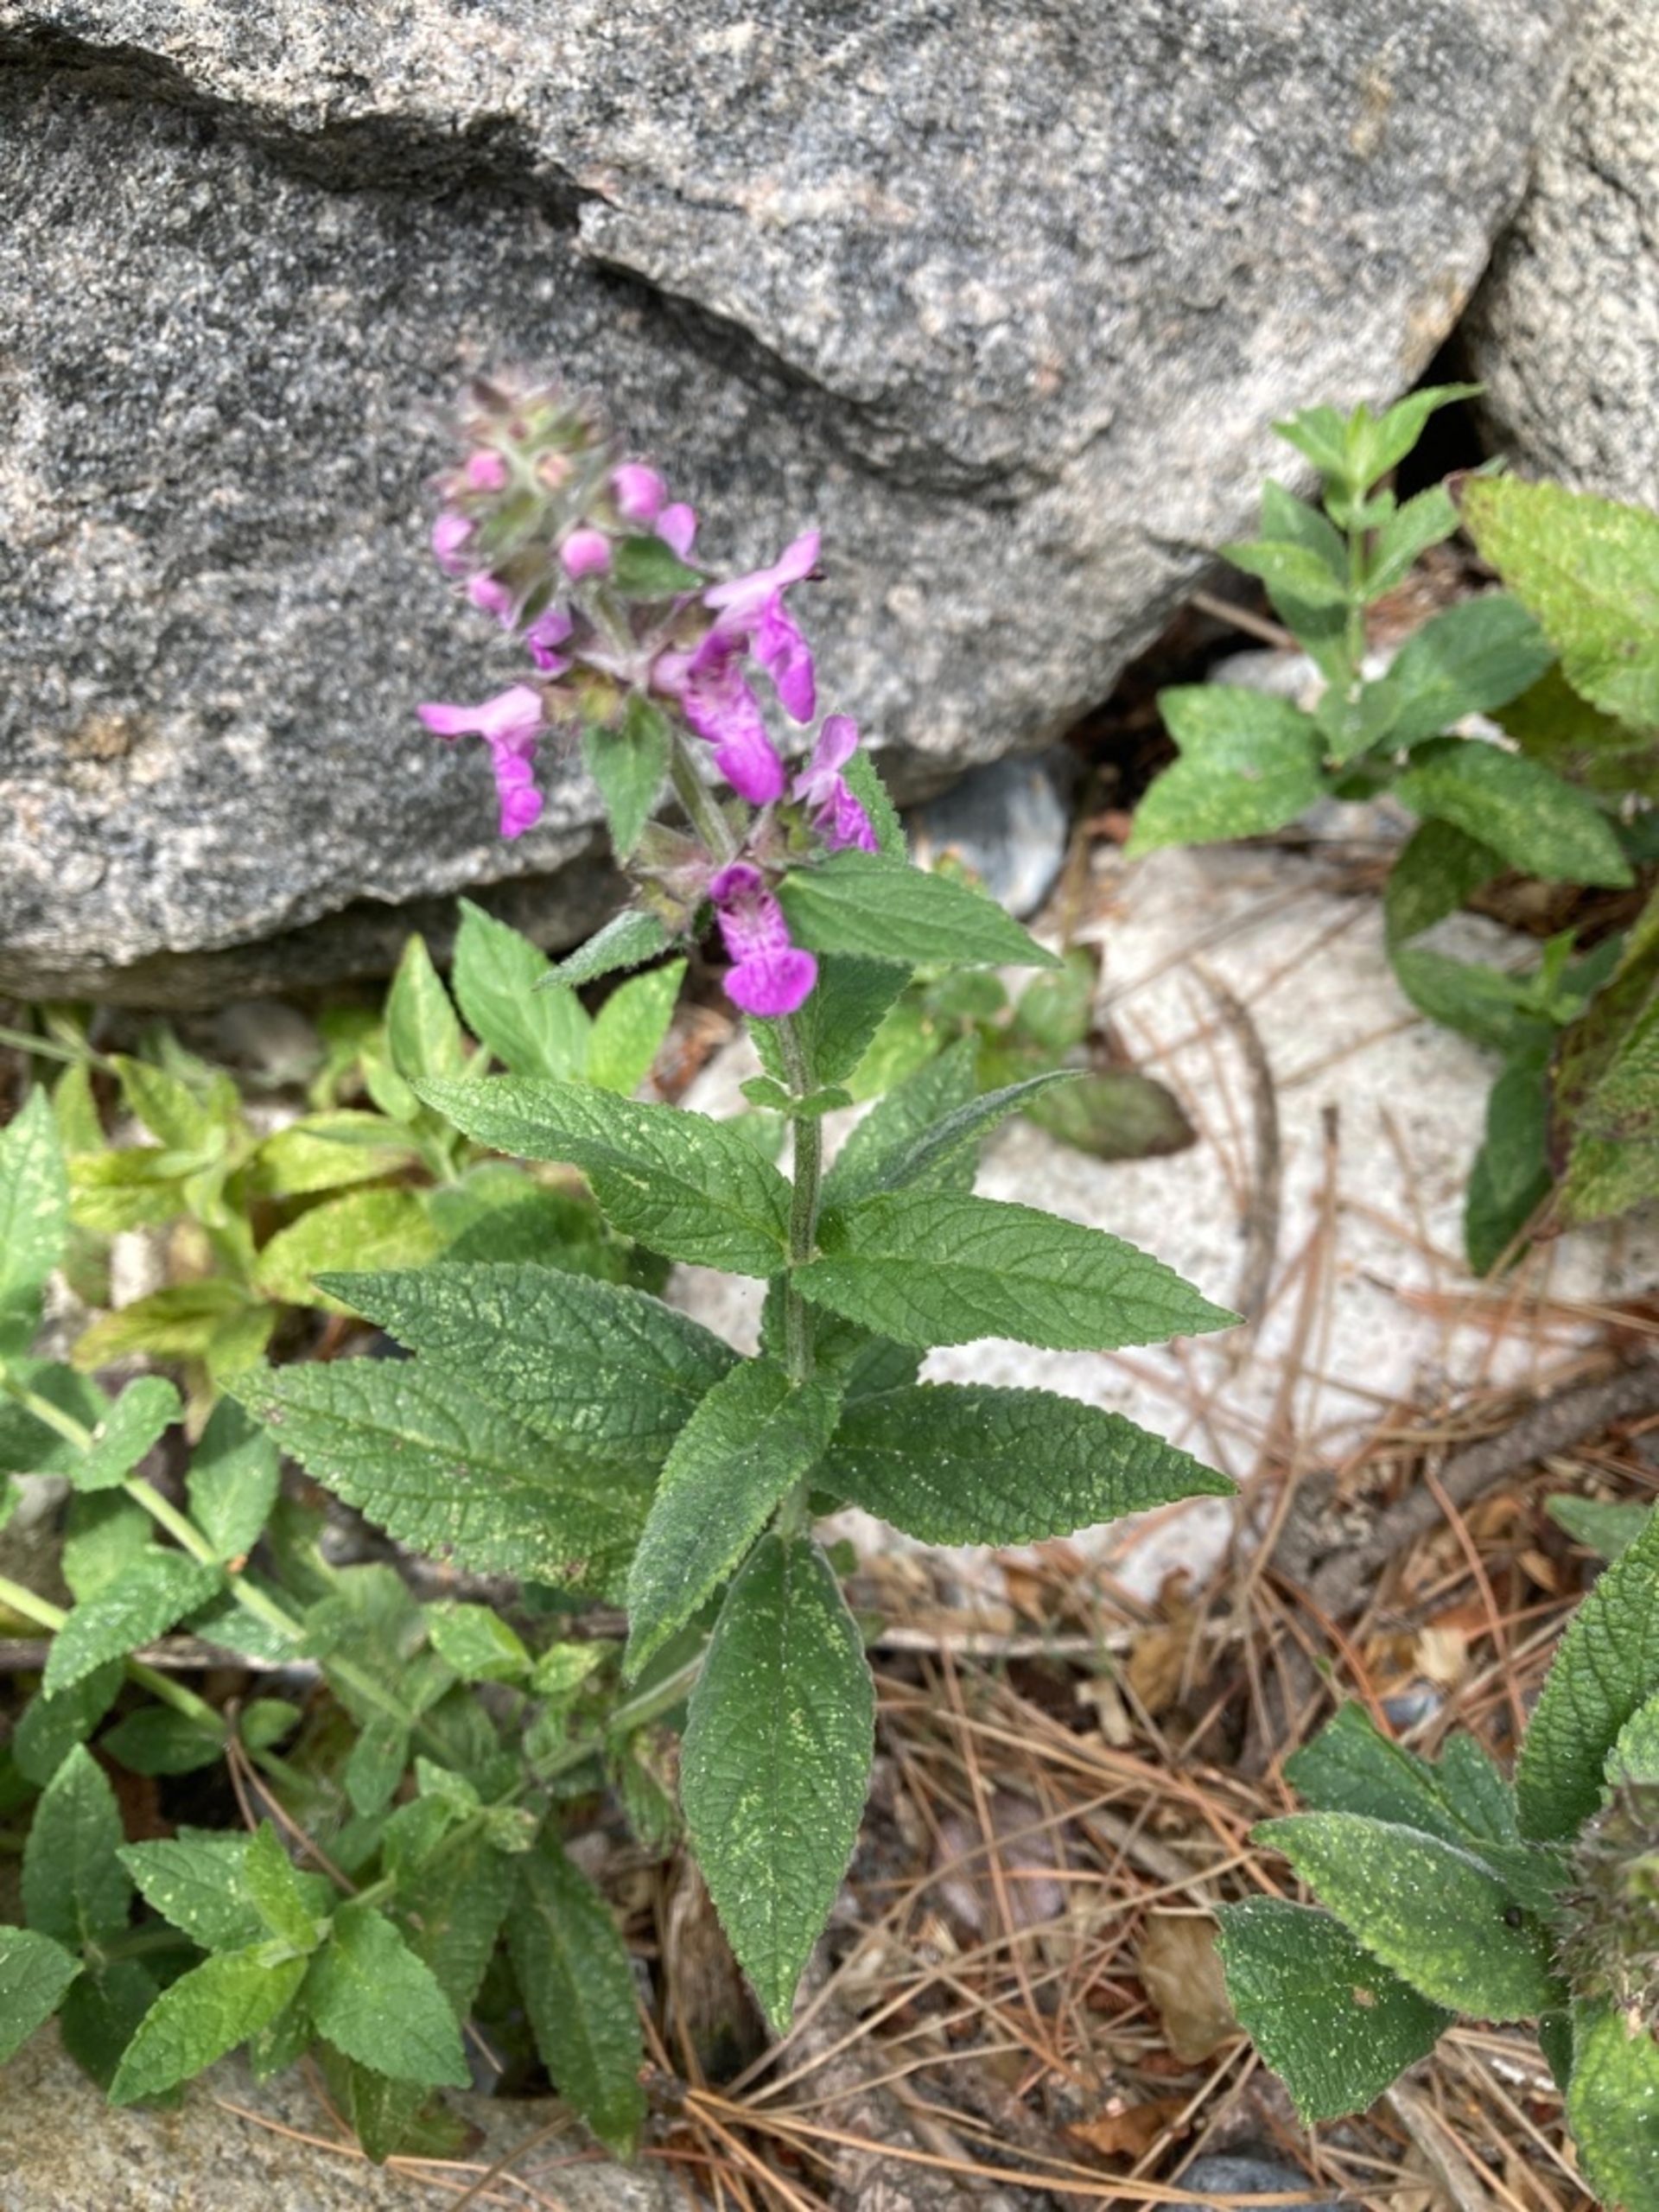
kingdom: Plantae
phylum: Tracheophyta
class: Magnoliopsida
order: Lamiales
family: Lamiaceae
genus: Stachys
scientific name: Stachys palustris
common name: Kær-galtetand
